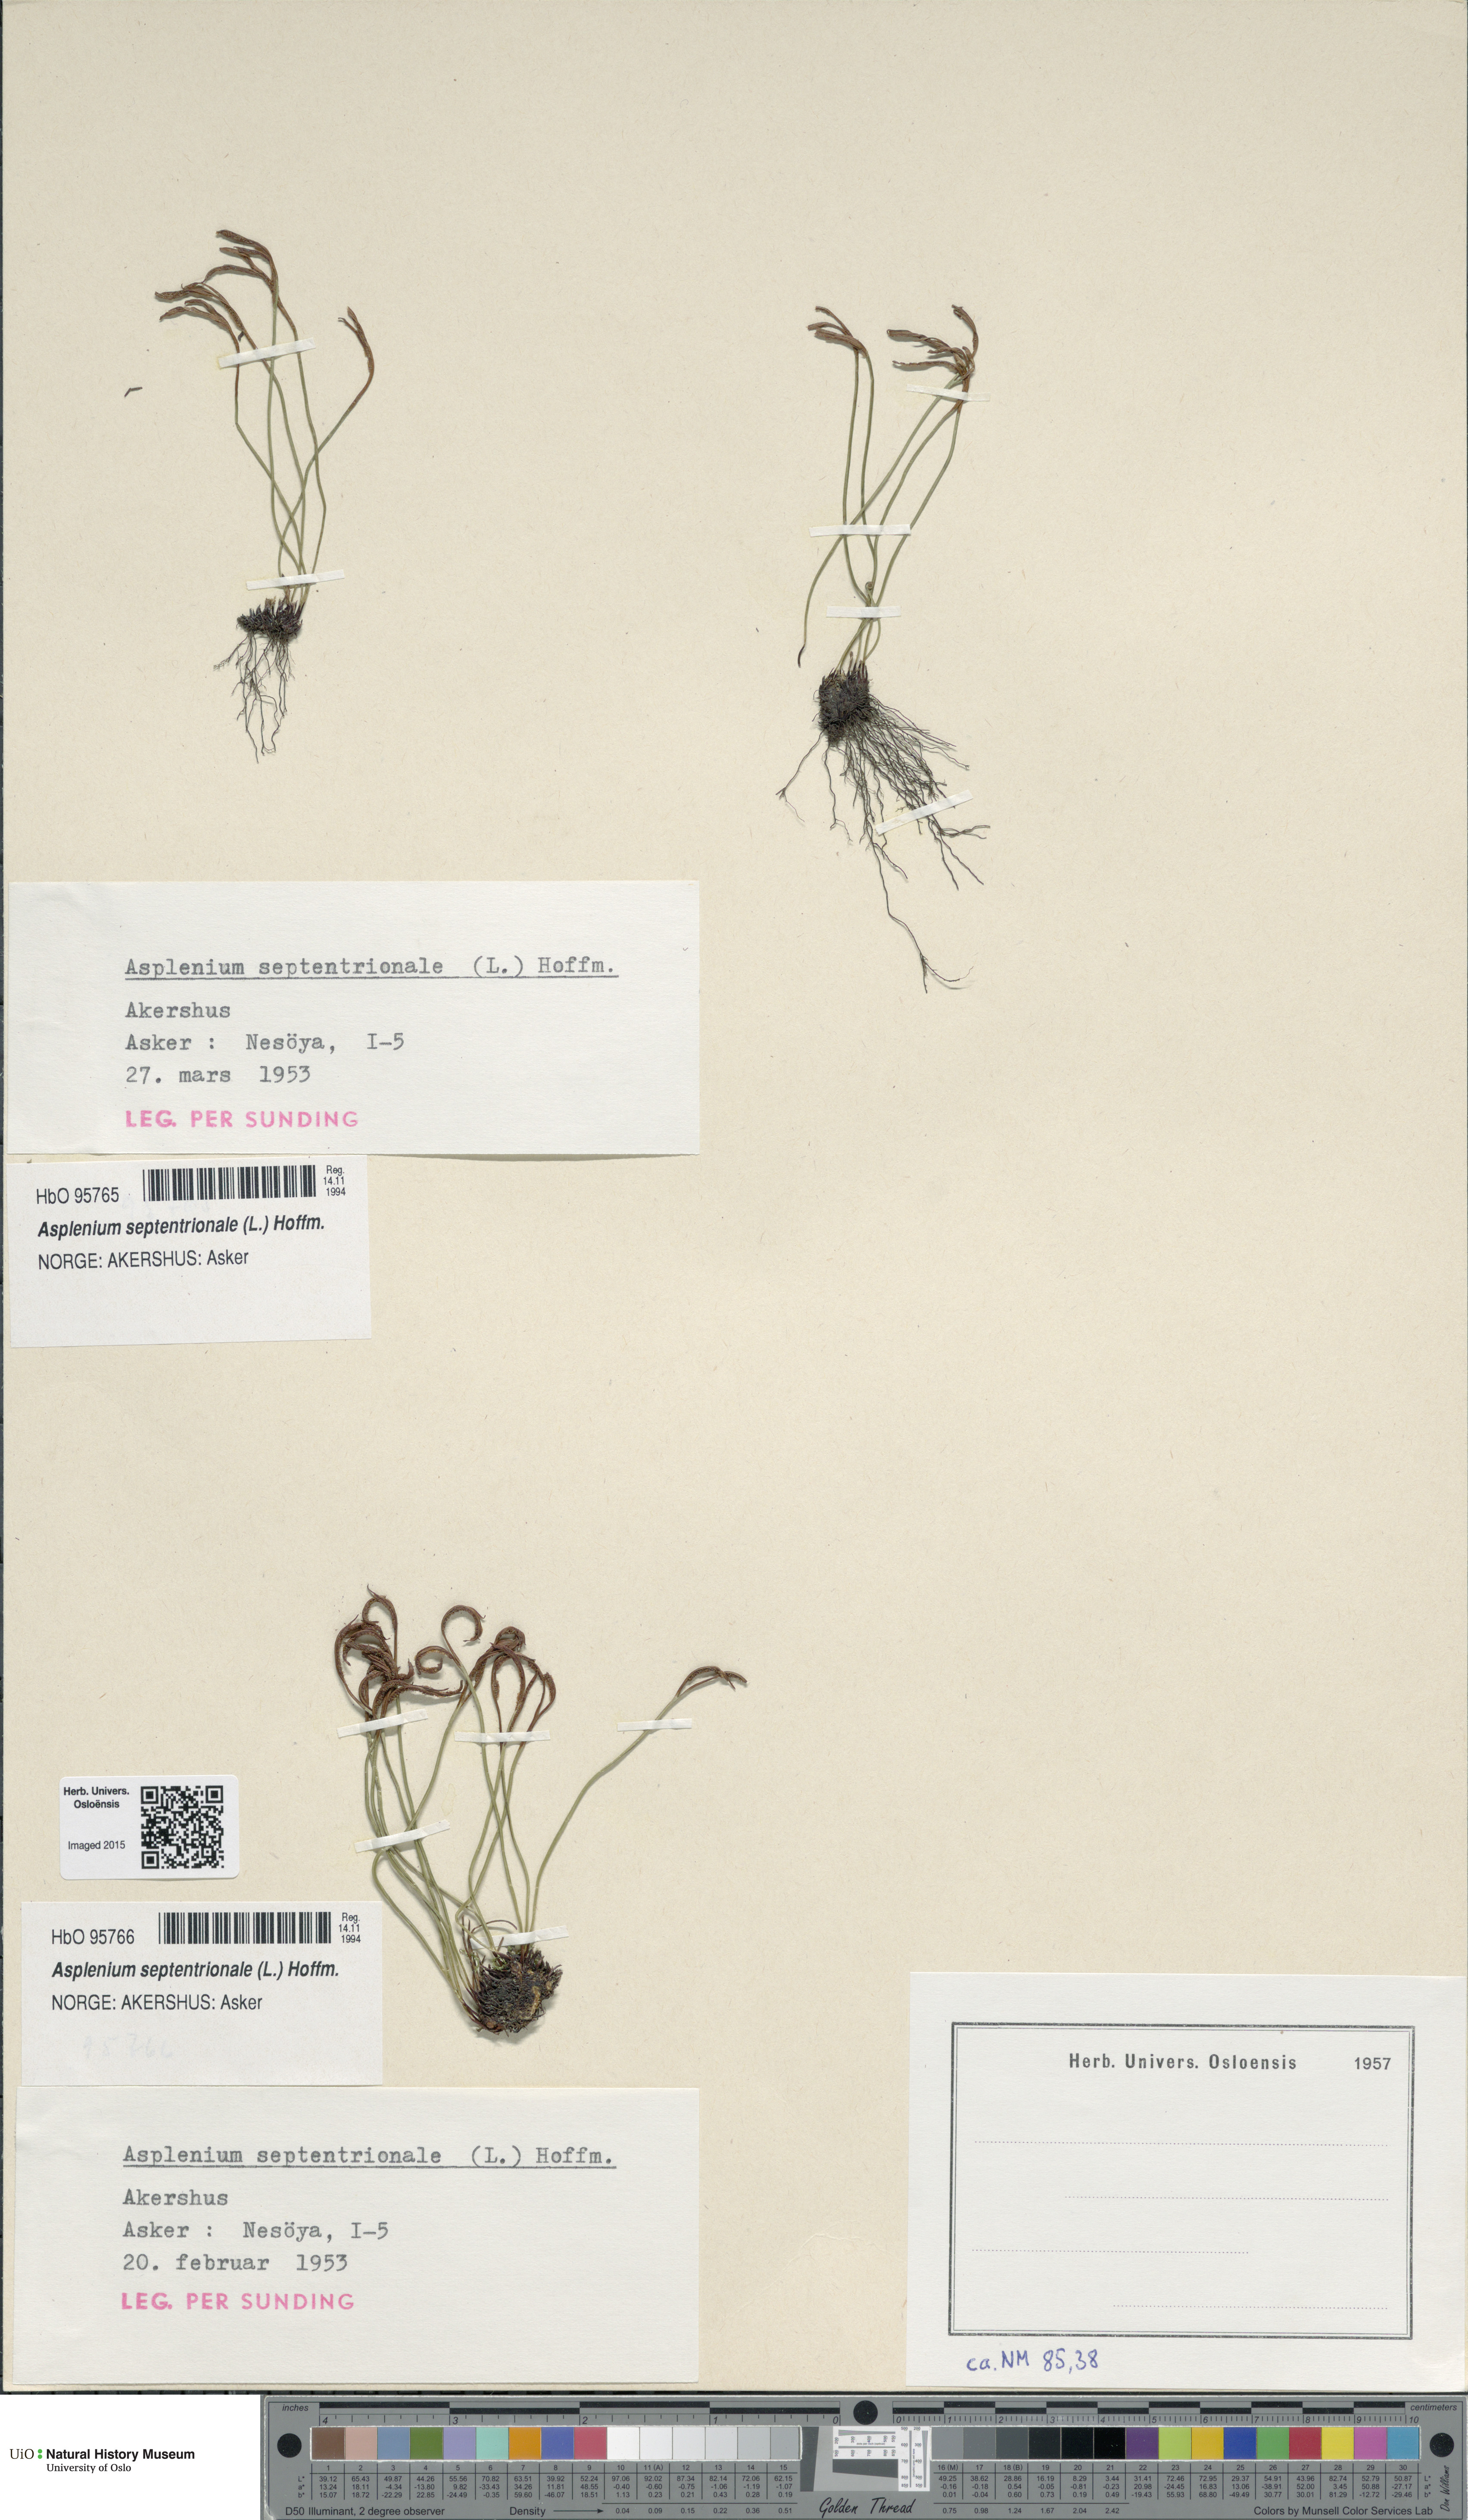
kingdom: Plantae
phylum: Tracheophyta
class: Polypodiopsida
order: Polypodiales
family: Aspleniaceae
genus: Asplenium
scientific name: Asplenium septentrionale
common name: Forked spleenwort
